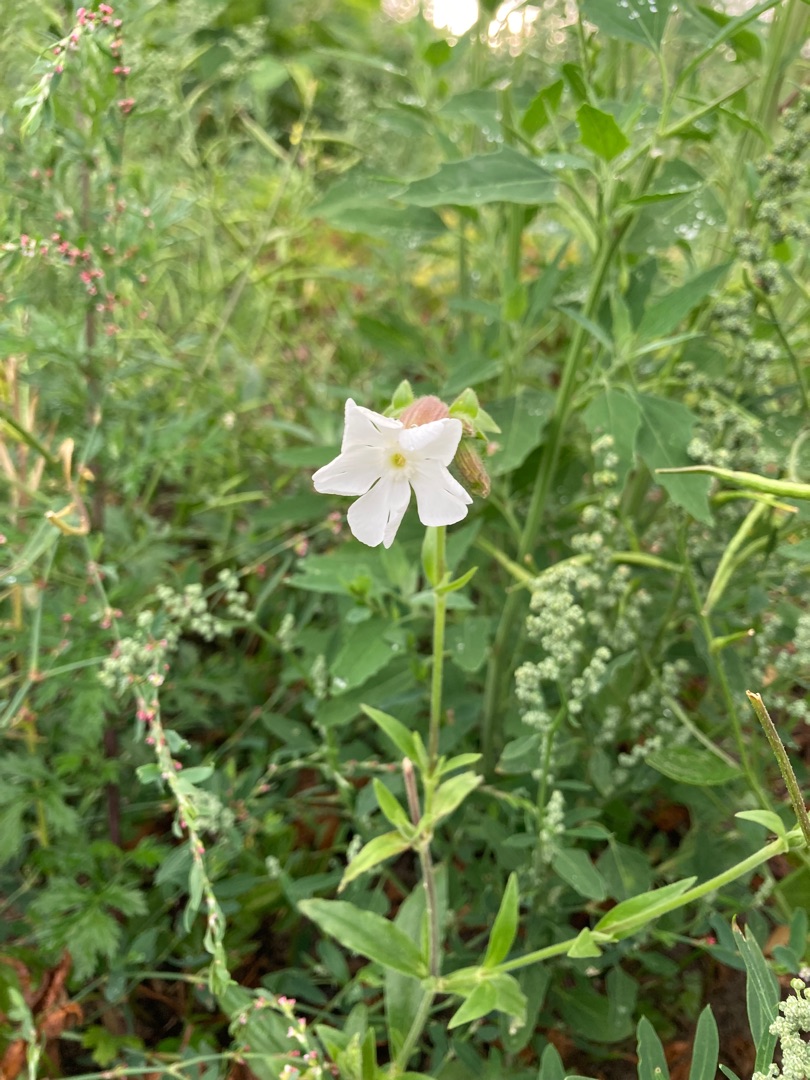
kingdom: Plantae
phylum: Tracheophyta
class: Magnoliopsida
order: Caryophyllales
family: Caryophyllaceae
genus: Silene
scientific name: Silene latifolia
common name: Aftenpragtstjerne
